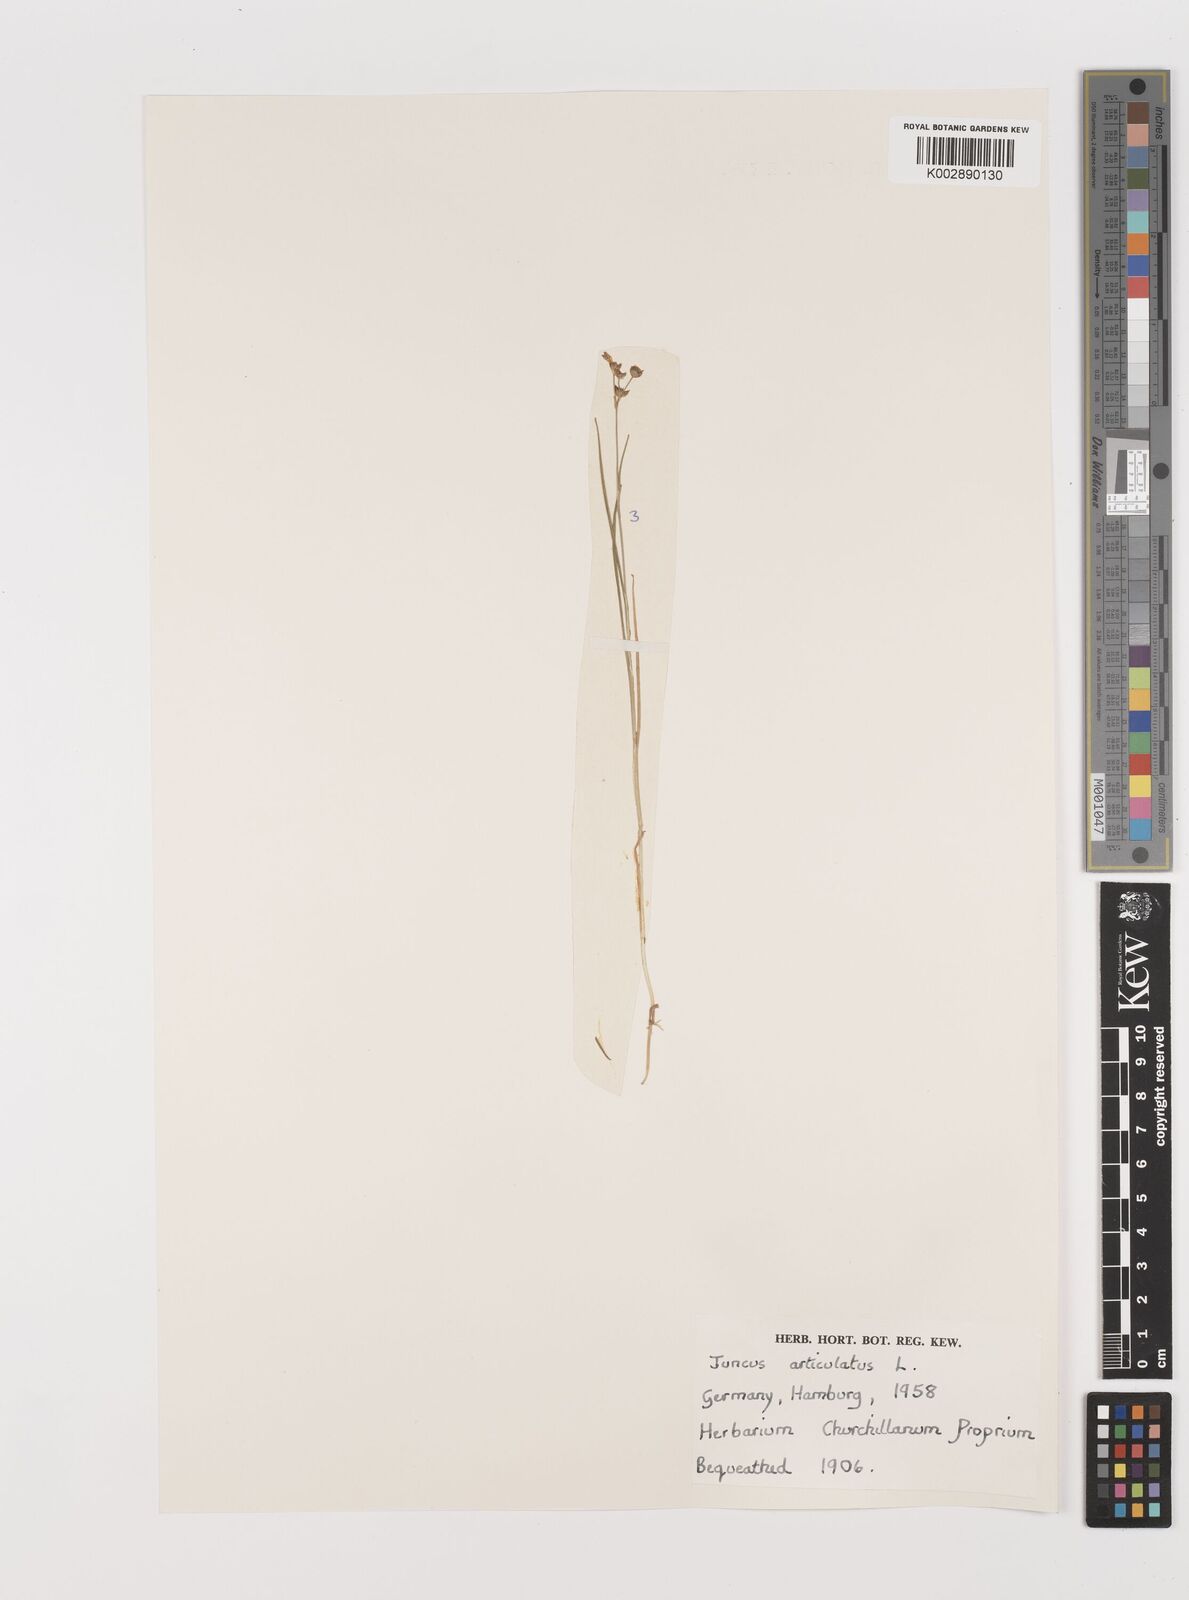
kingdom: Plantae
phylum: Tracheophyta
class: Liliopsida
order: Poales
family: Juncaceae
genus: Juncus
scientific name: Juncus articulatus
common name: Jointed rush
